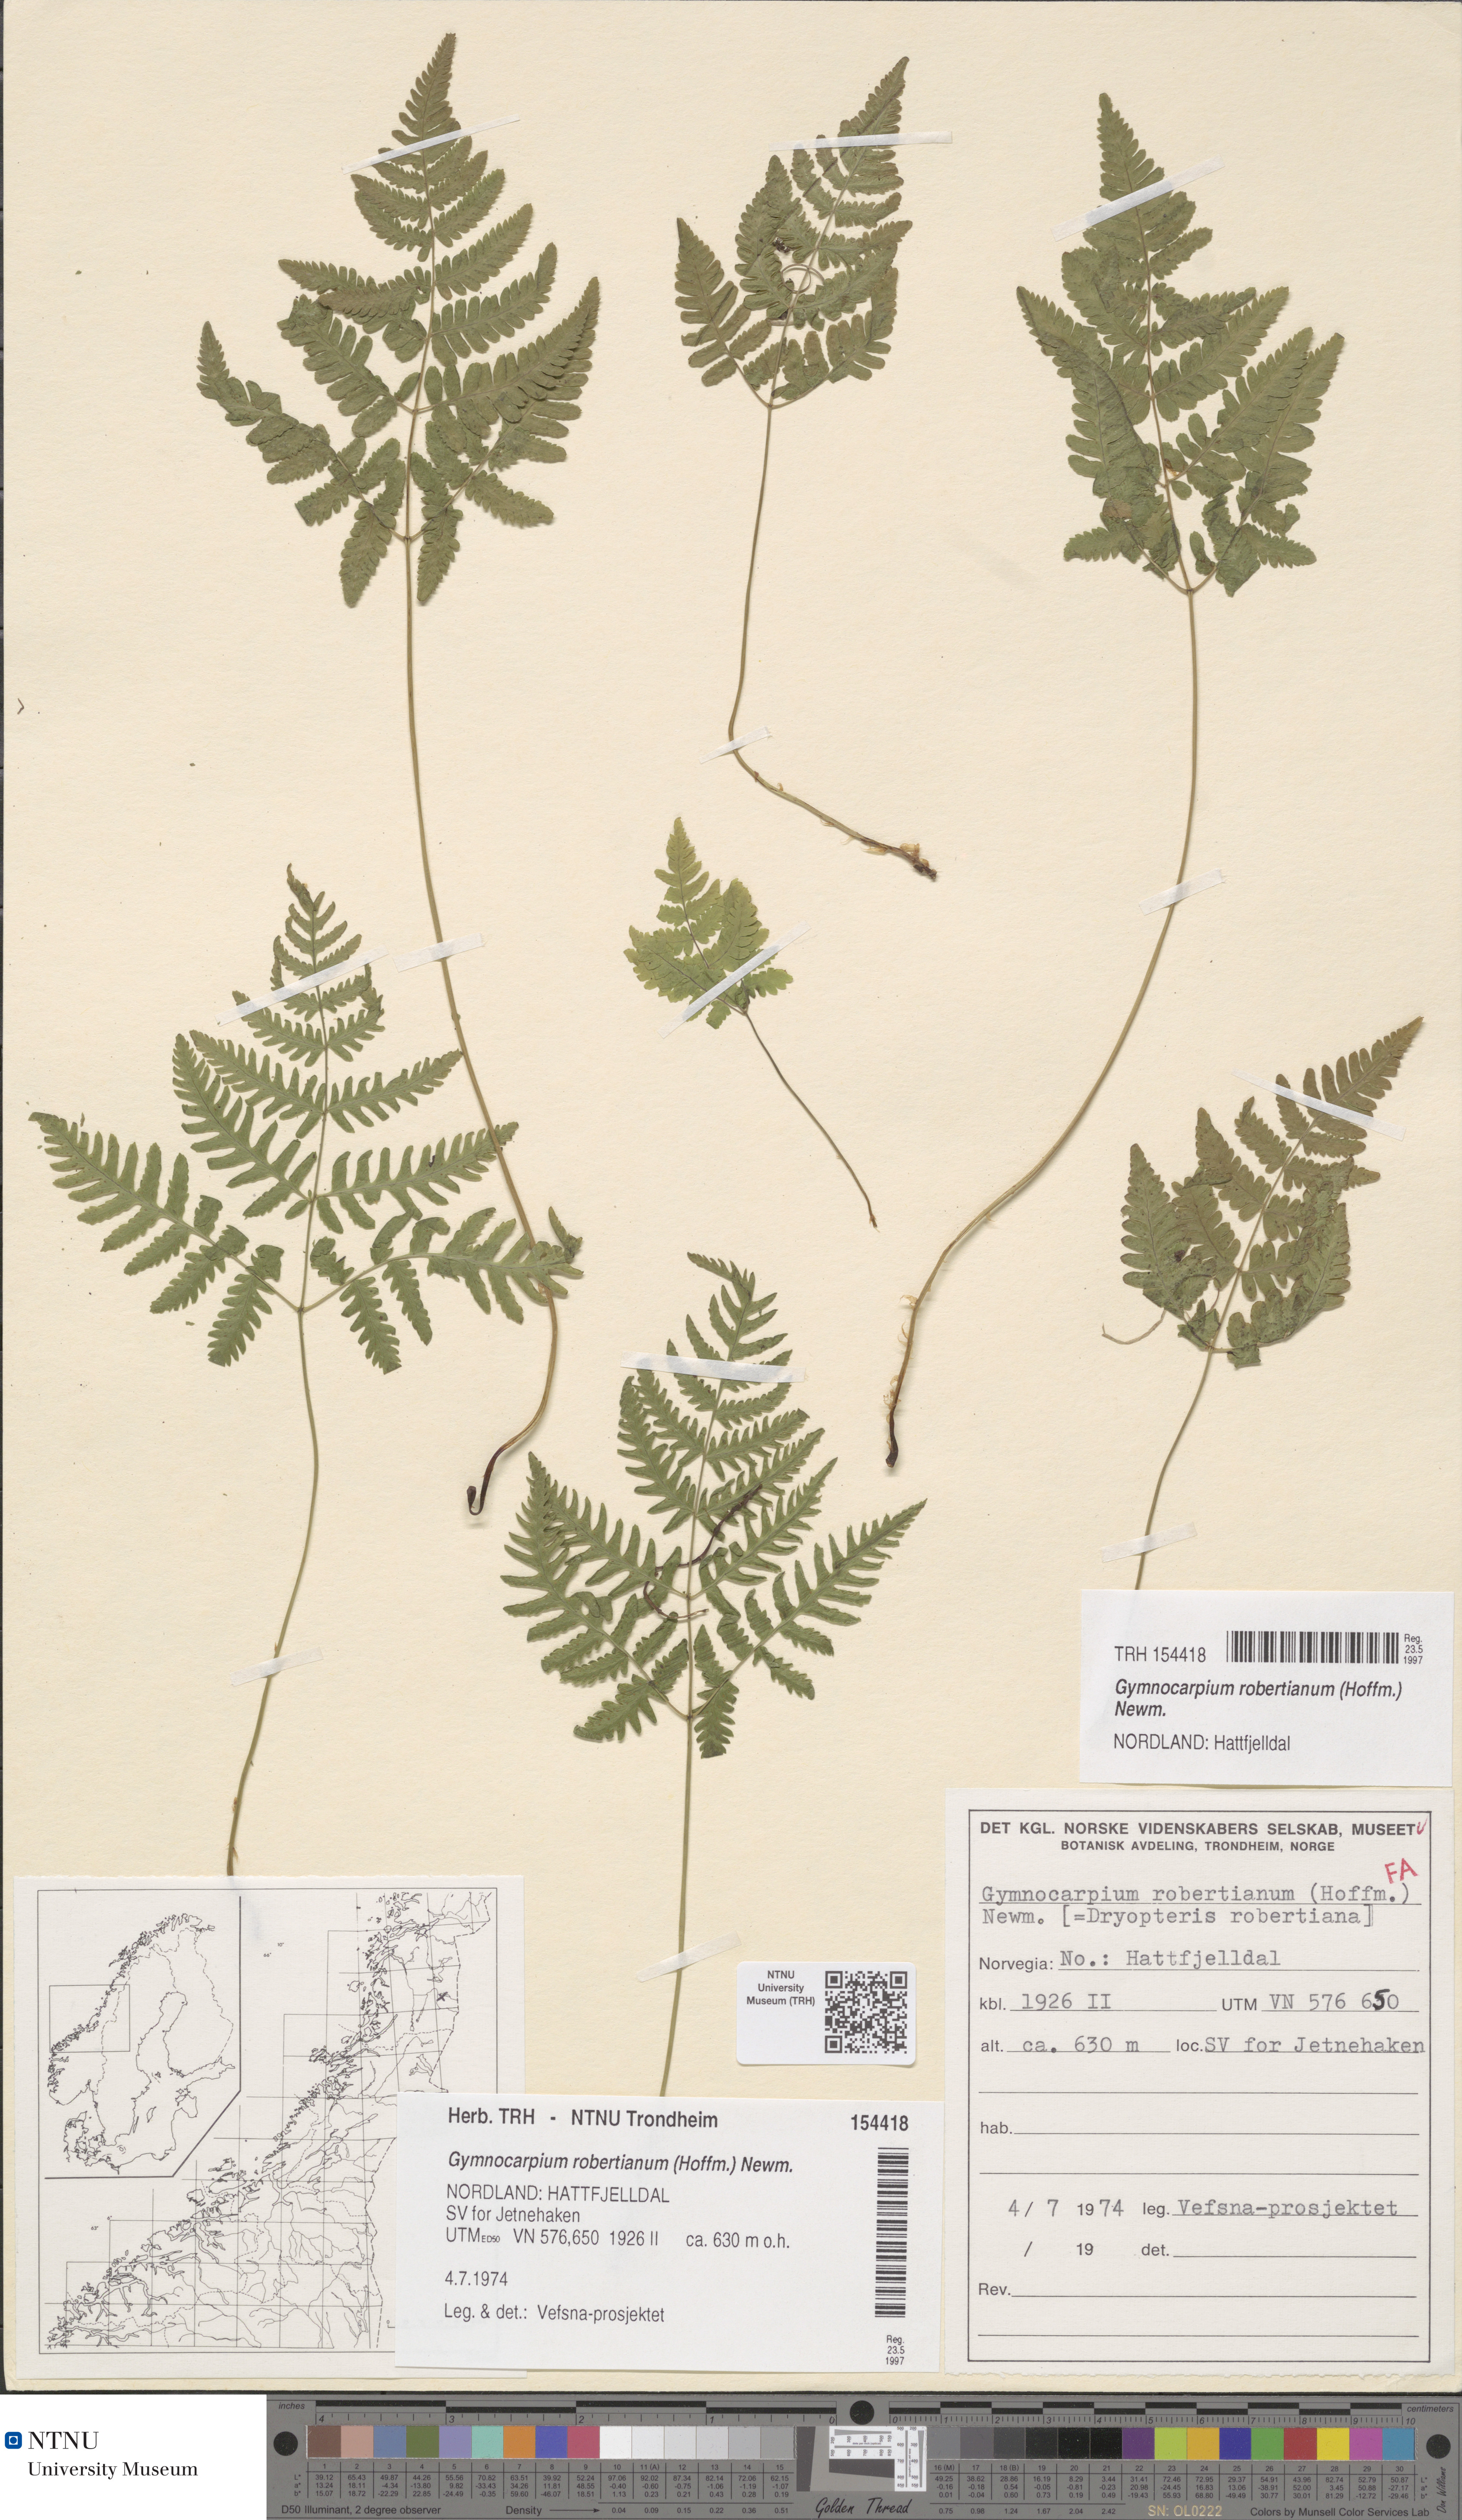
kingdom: Plantae
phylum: Tracheophyta
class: Polypodiopsida
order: Polypodiales
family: Cystopteridaceae
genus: Gymnocarpium
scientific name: Gymnocarpium robertianum
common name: Limestone fern
